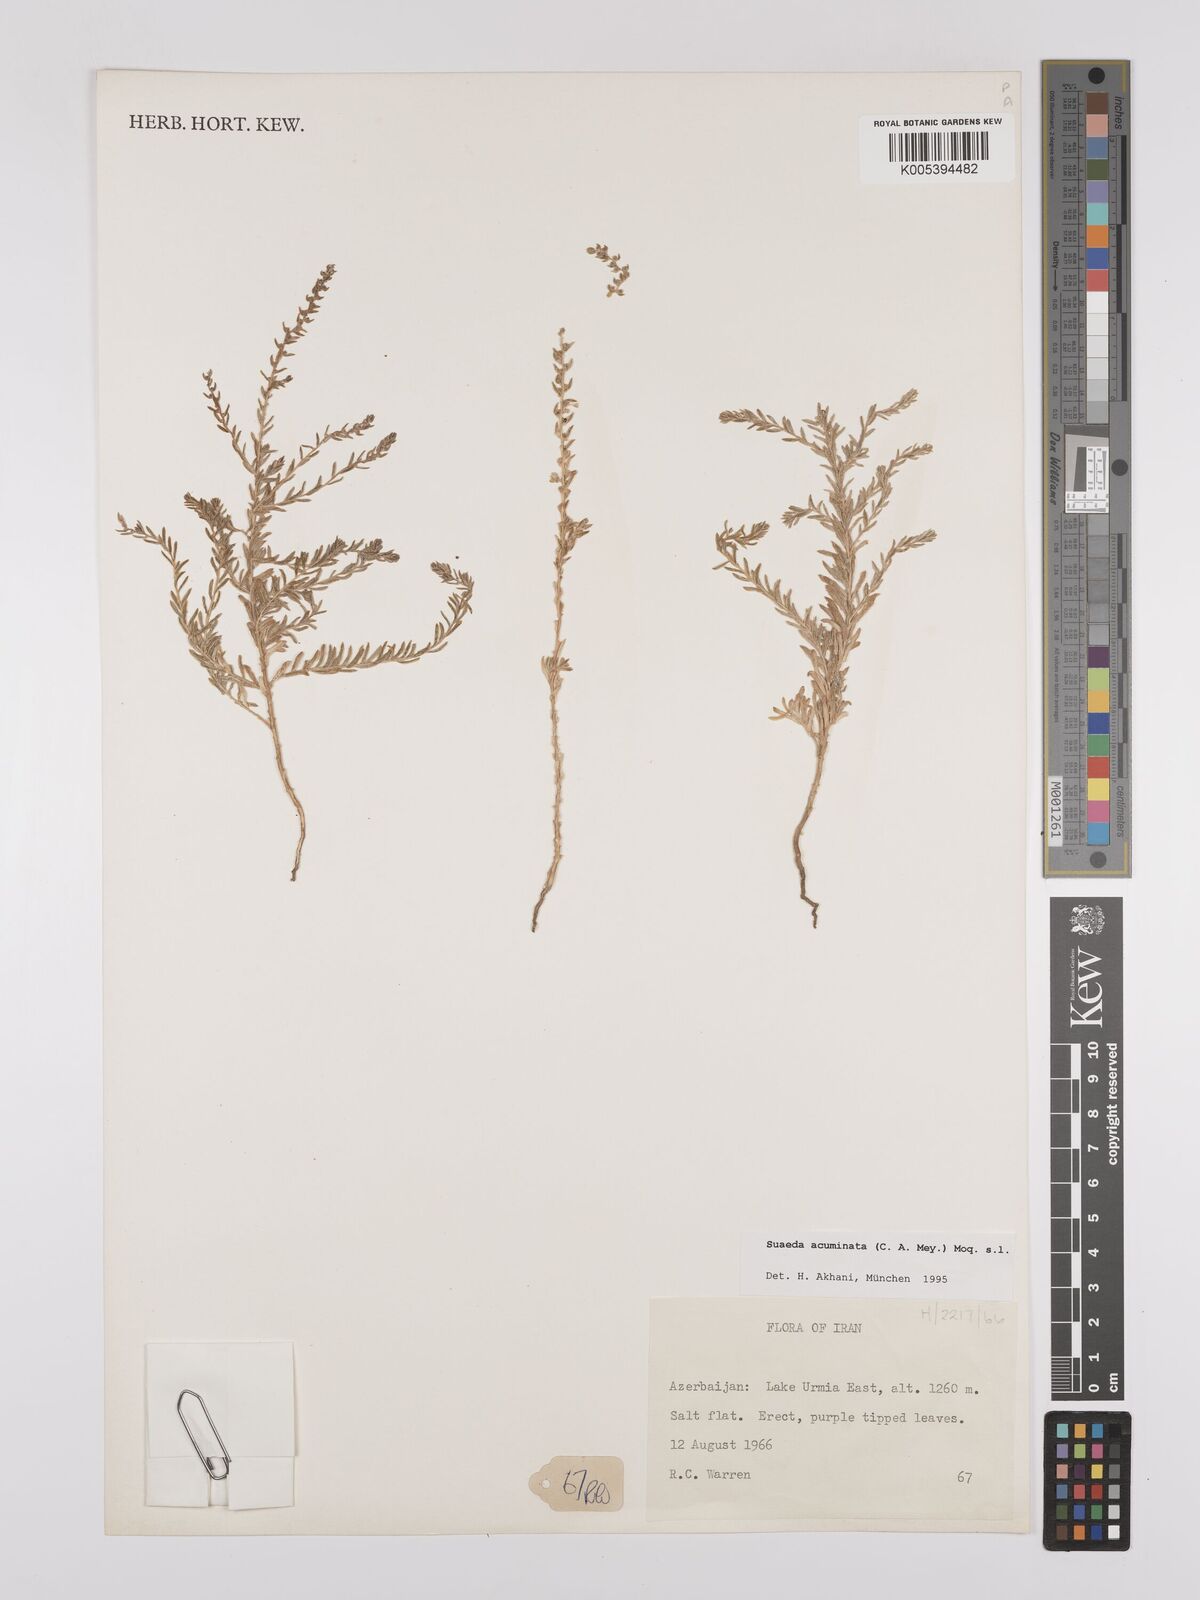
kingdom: Plantae
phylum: Tracheophyta
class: Magnoliopsida
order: Caryophyllales
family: Amaranthaceae
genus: Suaeda
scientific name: Suaeda acuminata
